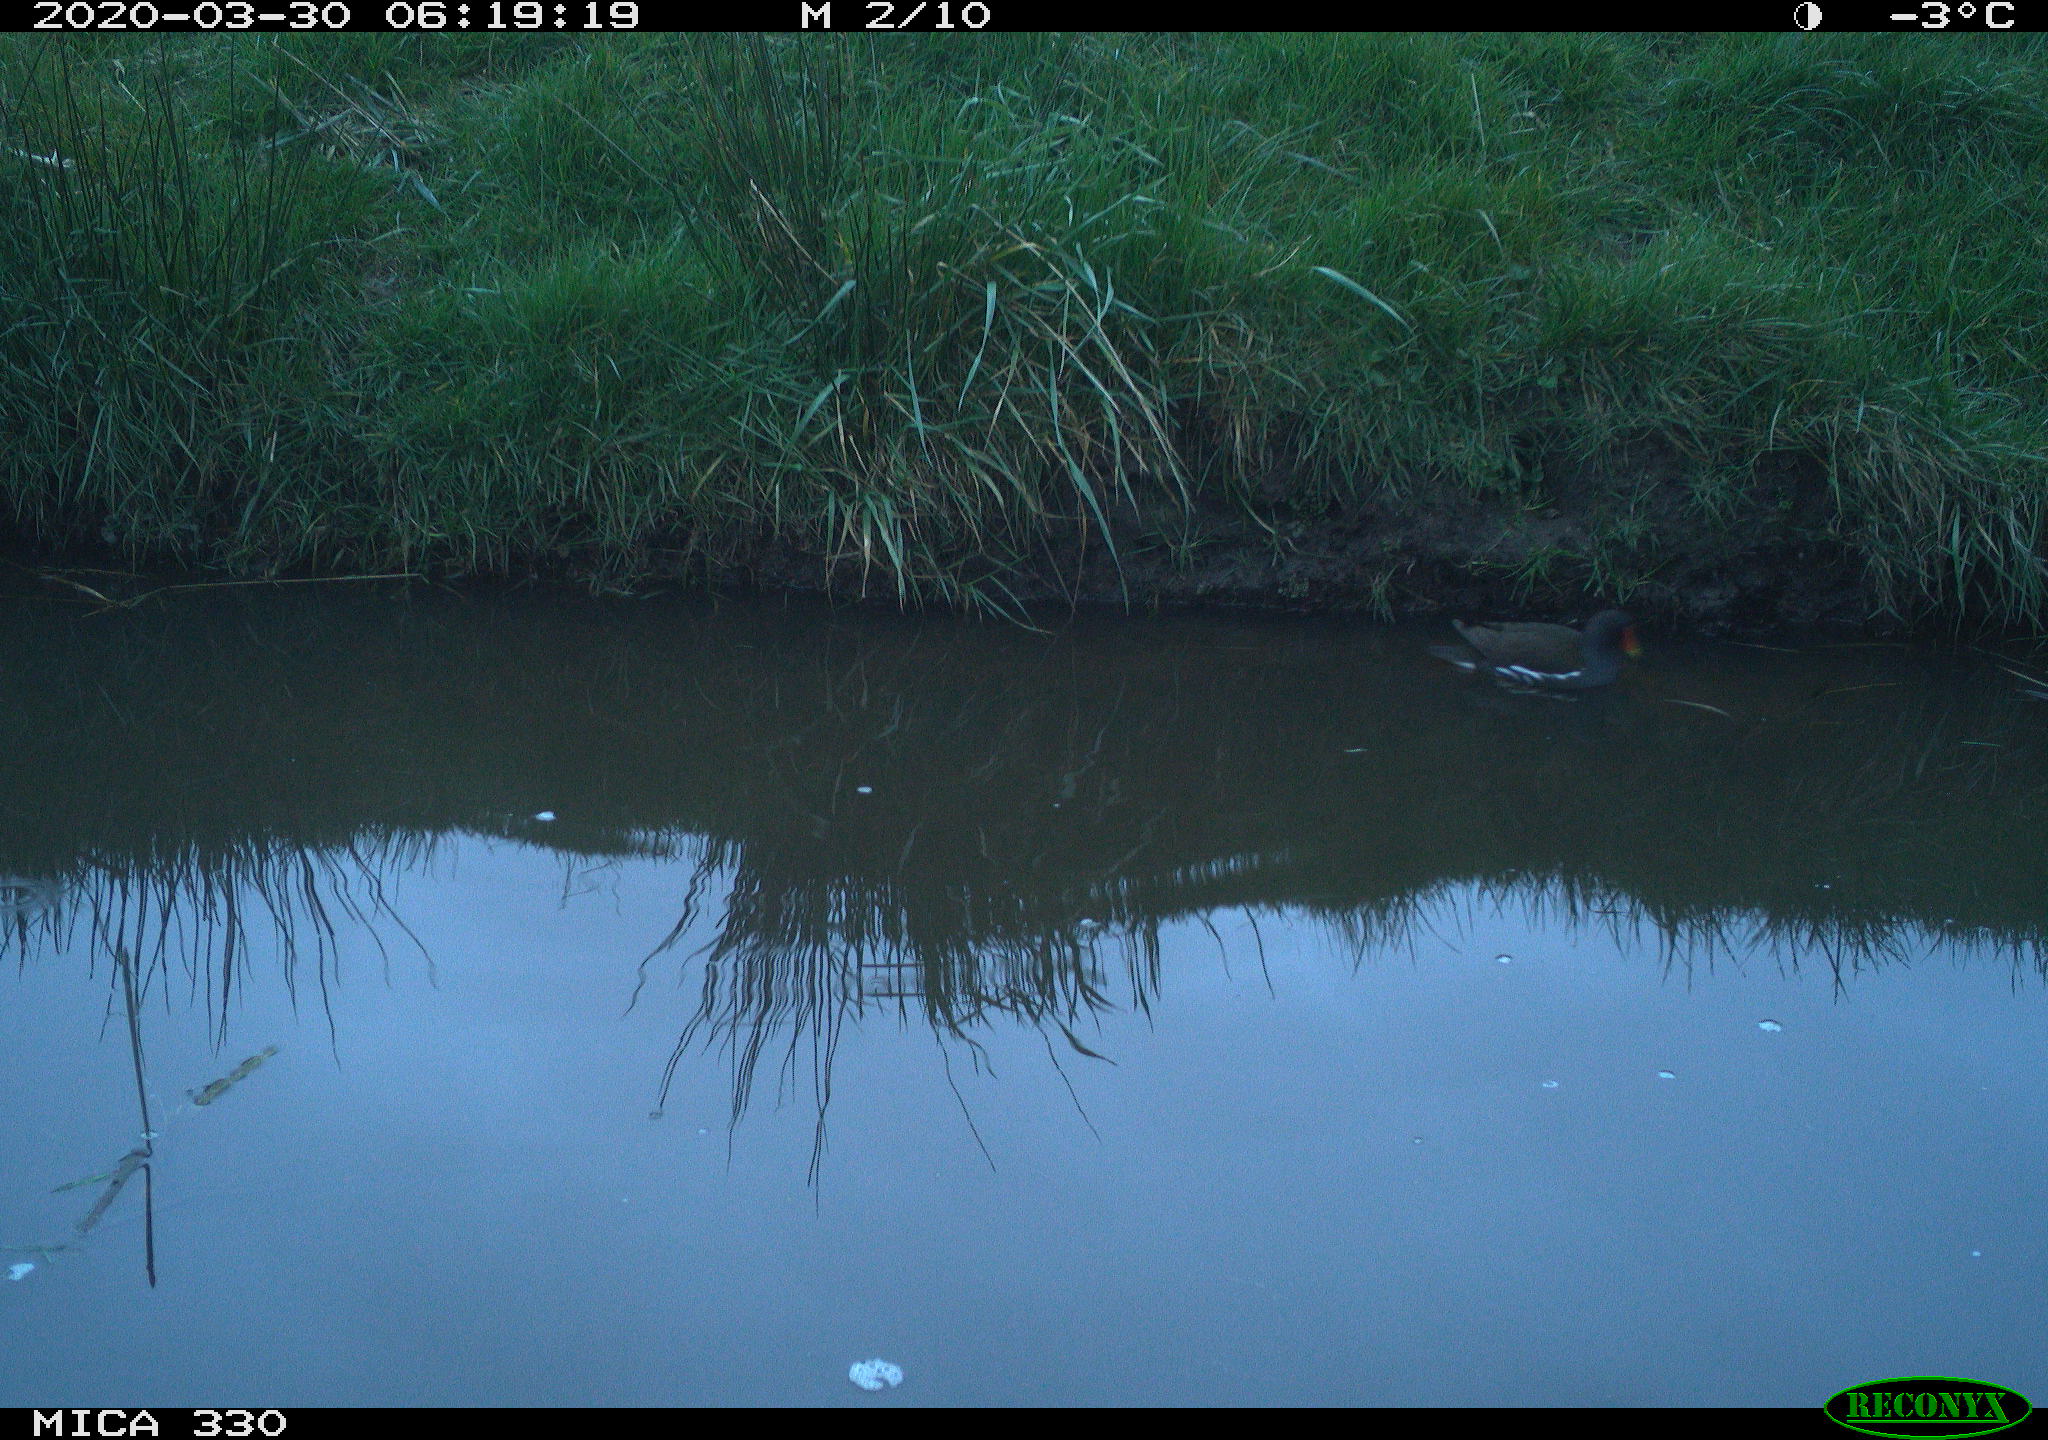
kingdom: Animalia
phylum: Chordata
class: Aves
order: Gruiformes
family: Rallidae
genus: Gallinula
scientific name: Gallinula chloropus
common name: Common moorhen
